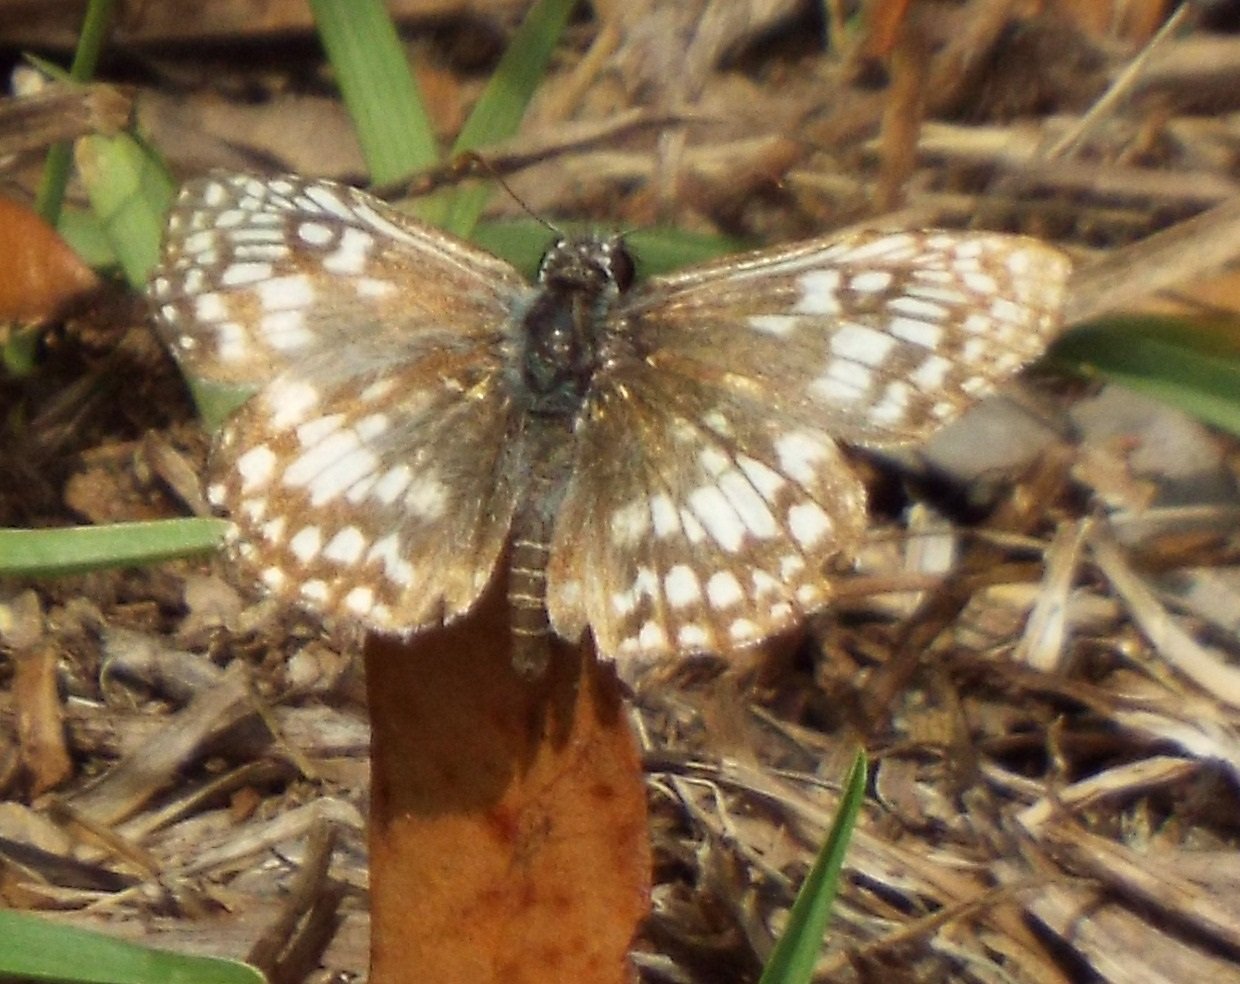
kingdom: Animalia
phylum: Arthropoda
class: Insecta
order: Lepidoptera
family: Hesperiidae
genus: Pyrgus
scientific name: Pyrgus oileus
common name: Tropical Checkered-Skipper
